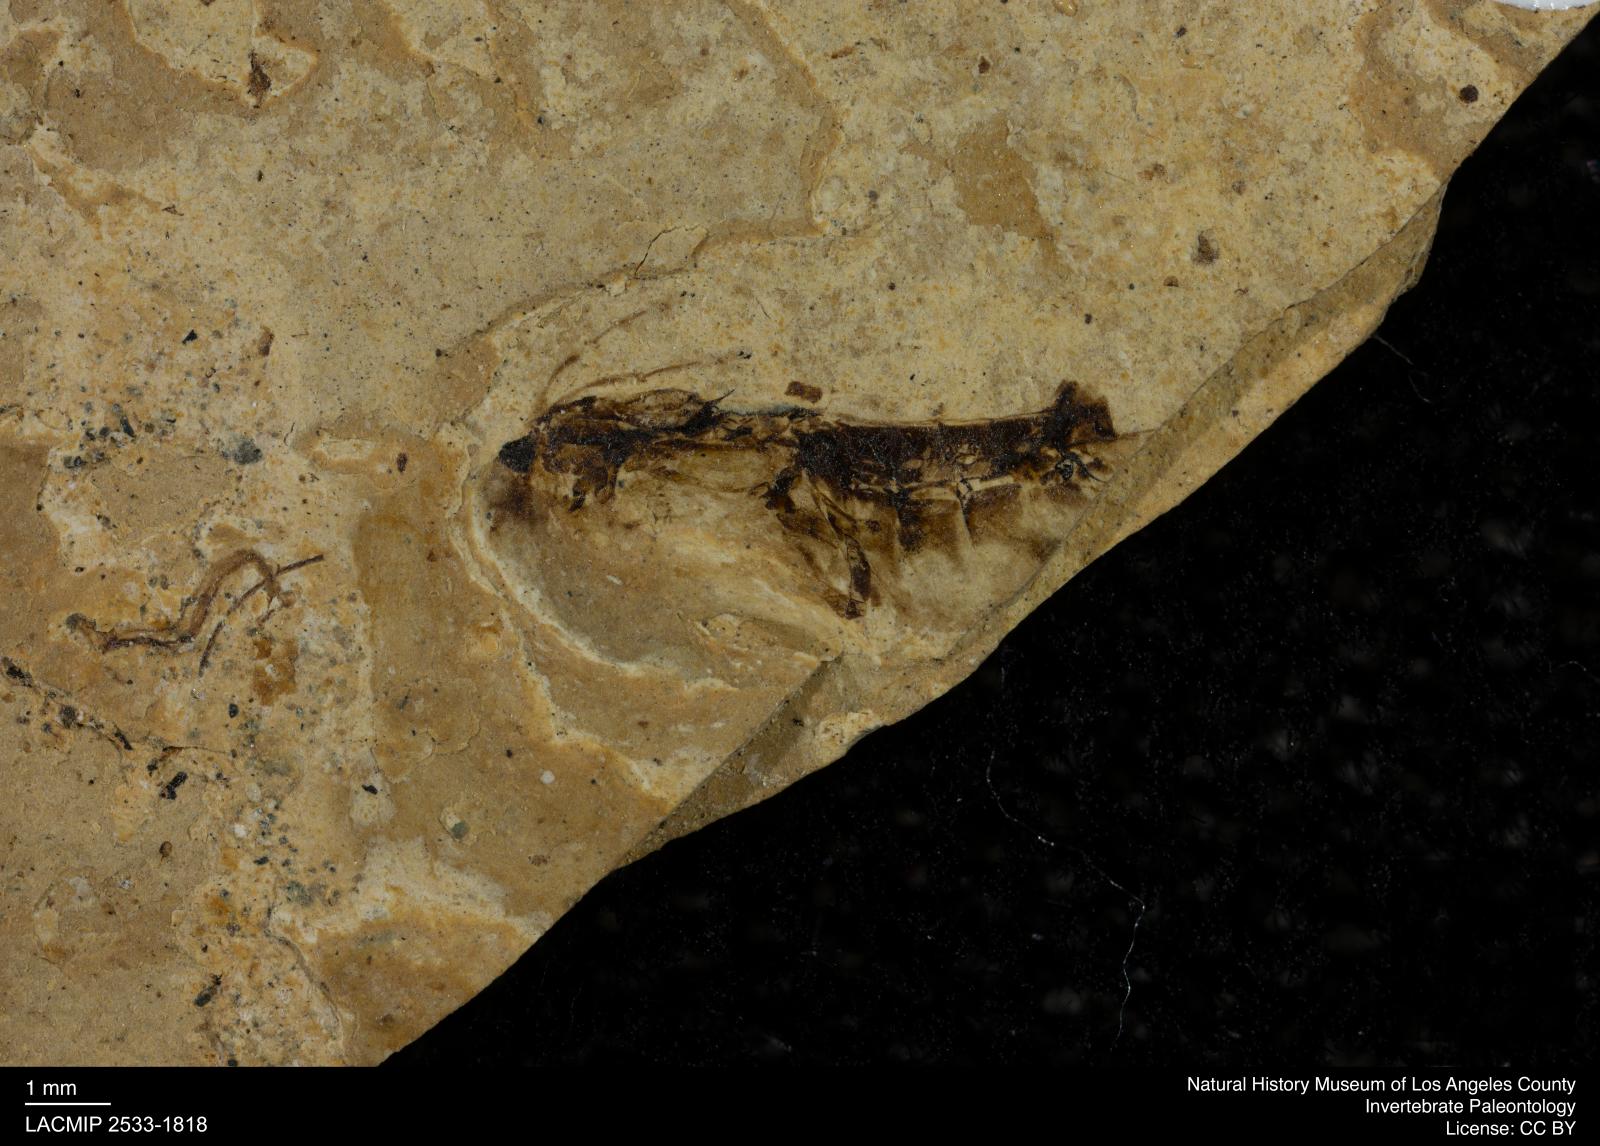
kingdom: Animalia
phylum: Arthropoda
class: Insecta
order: Hemiptera
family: Notonectidae
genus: Notonecta
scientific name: Notonecta
